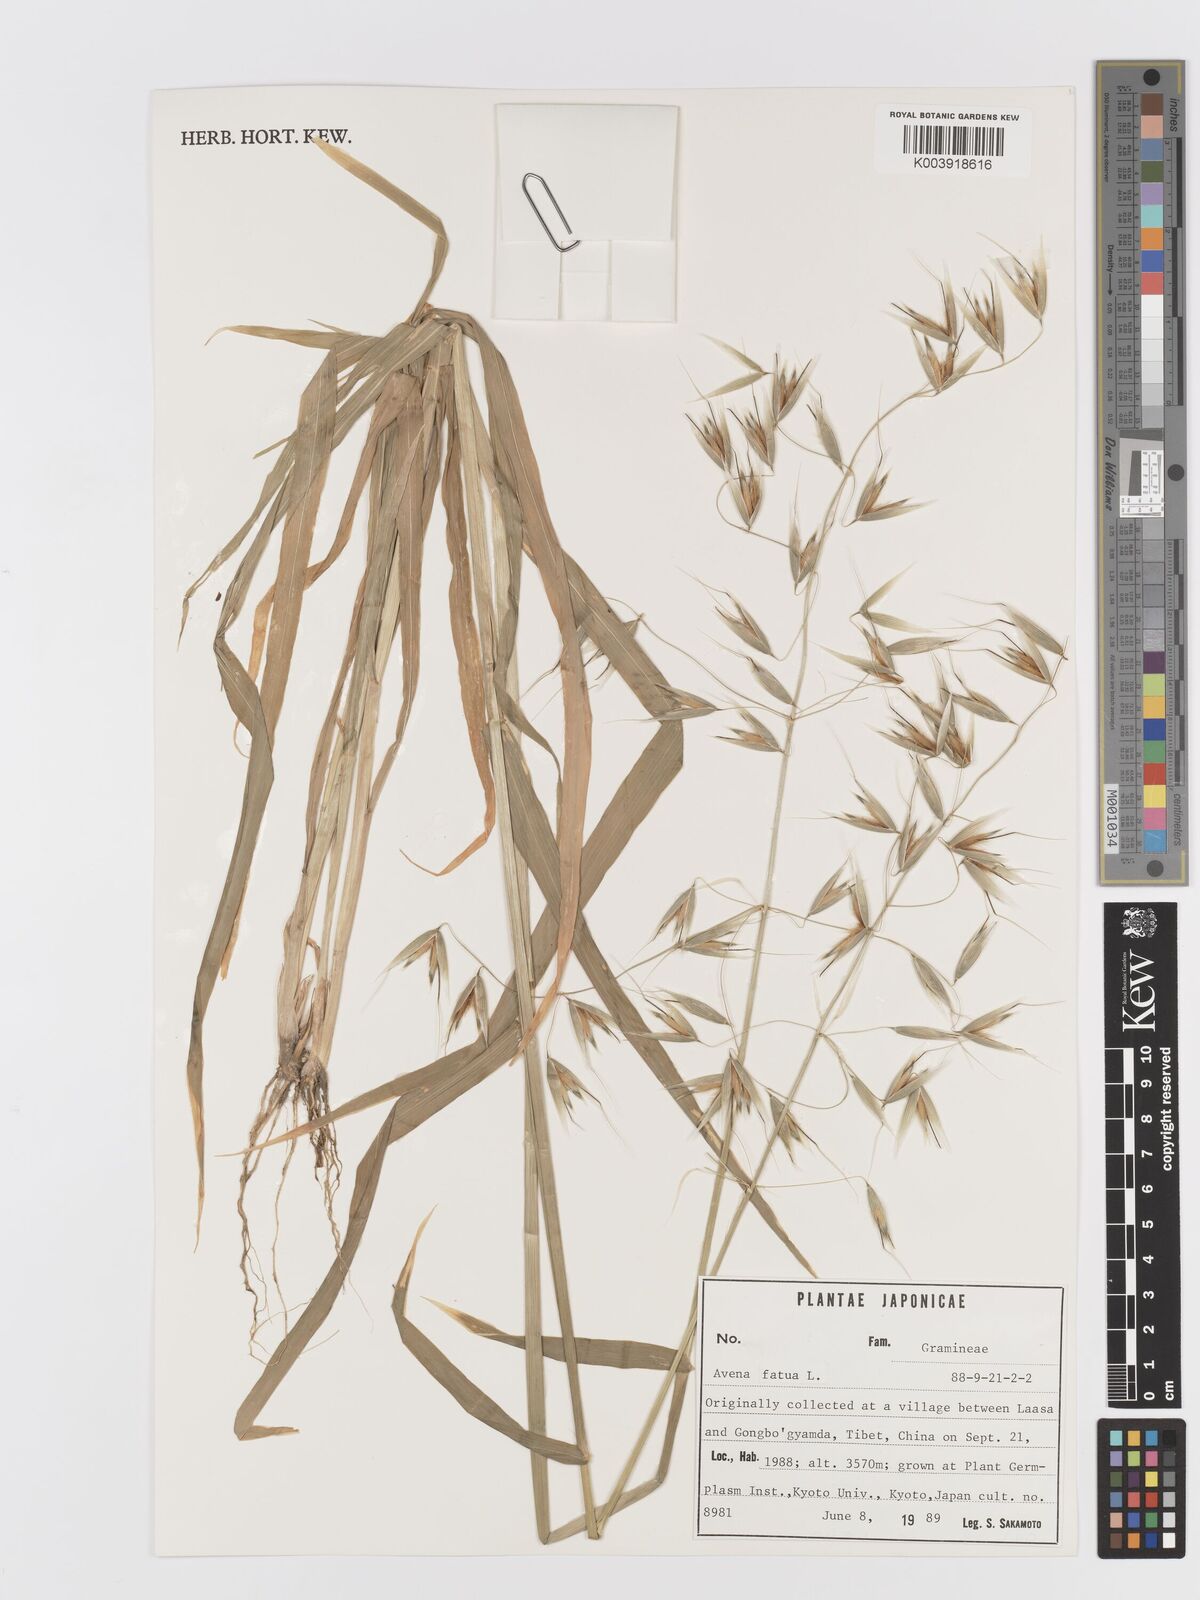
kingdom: Plantae
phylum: Tracheophyta
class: Liliopsida
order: Poales
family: Poaceae
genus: Avena
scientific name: Avena fatua
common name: Wild oat
